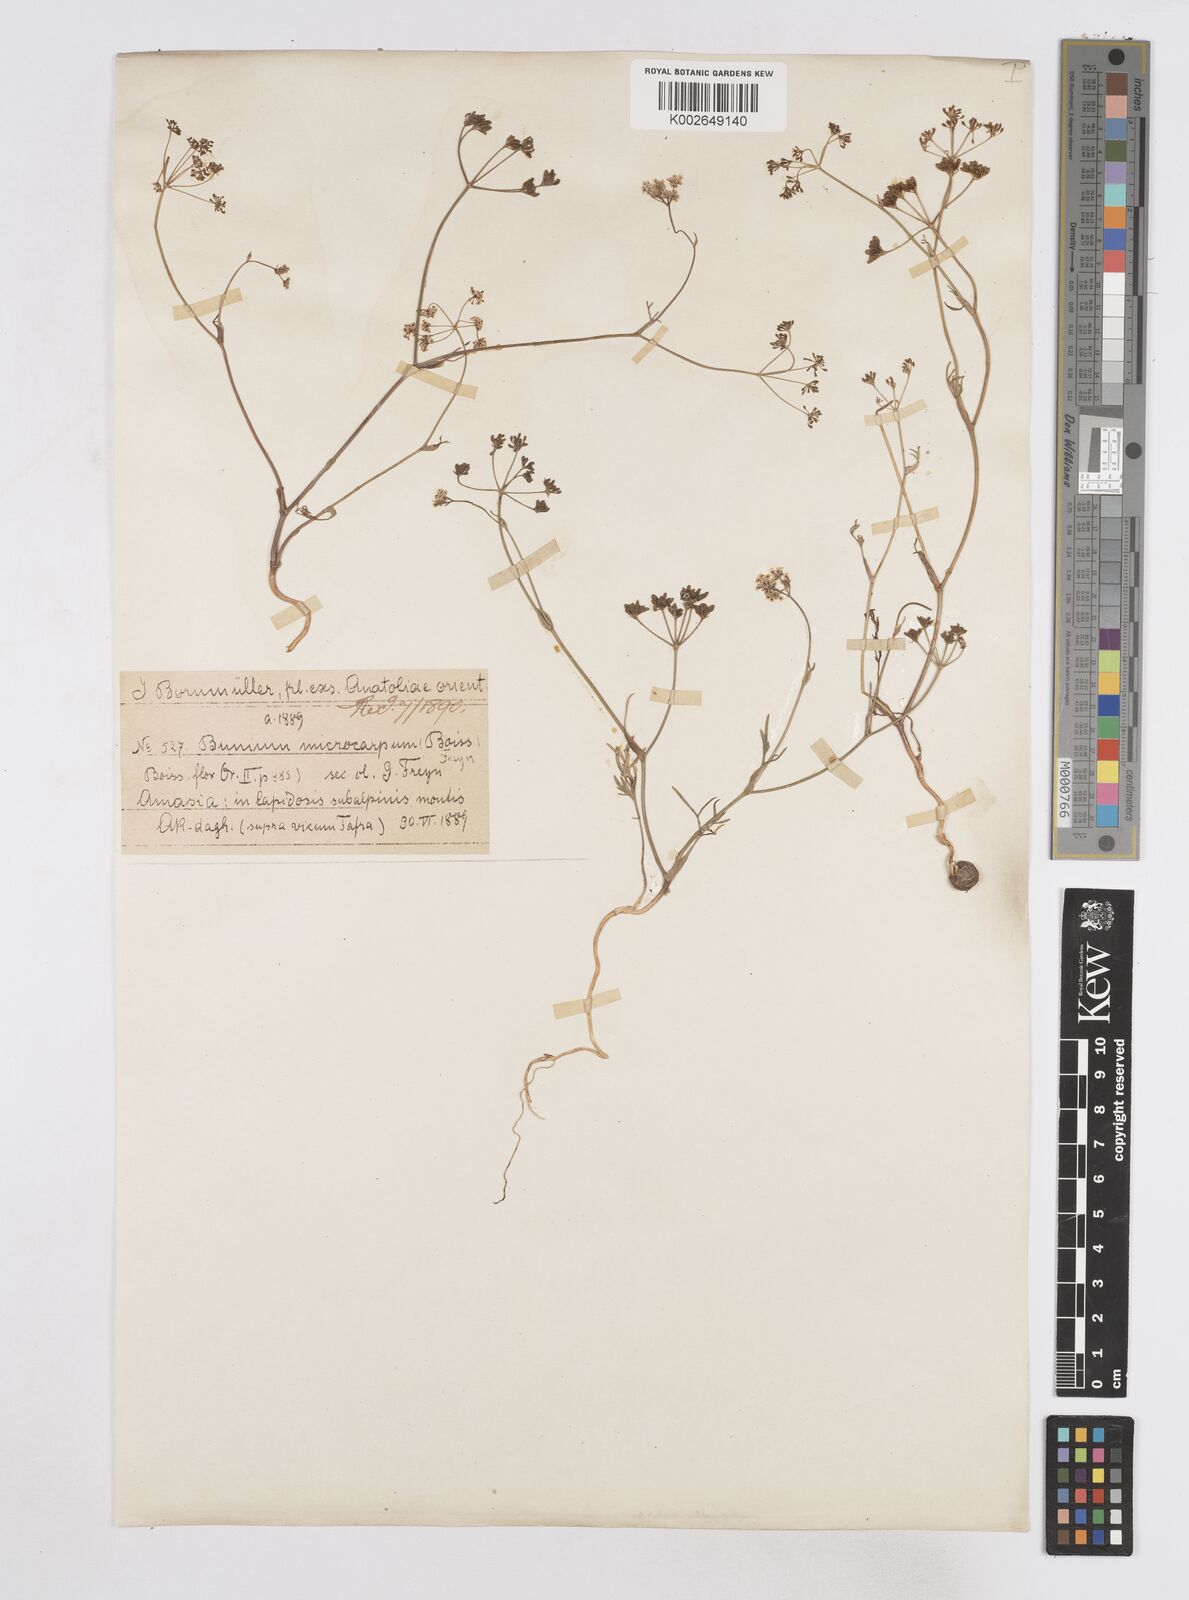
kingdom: Plantae
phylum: Tracheophyta
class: Magnoliopsida
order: Apiales
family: Apiaceae
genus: Bunium
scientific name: Bunium microcarpum
